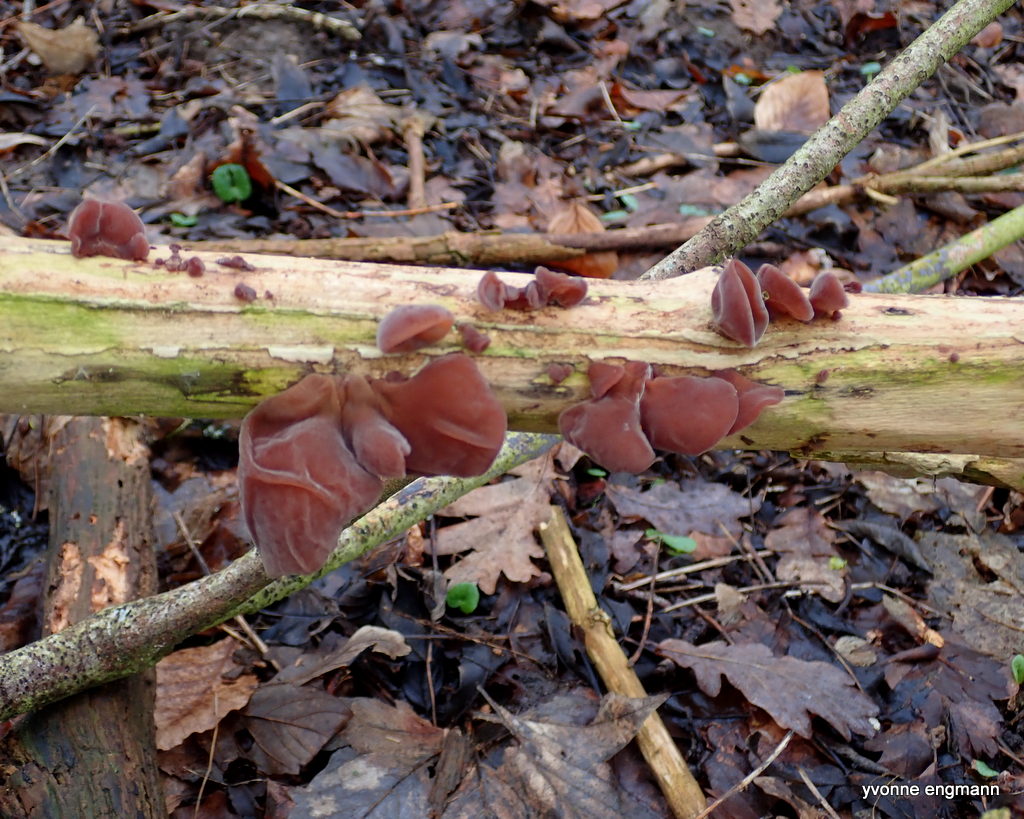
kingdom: Fungi
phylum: Basidiomycota
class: Agaricomycetes
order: Auriculariales
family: Auriculariaceae
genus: Auricularia
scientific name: Auricularia auricula-judae
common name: almindelig judasøre
